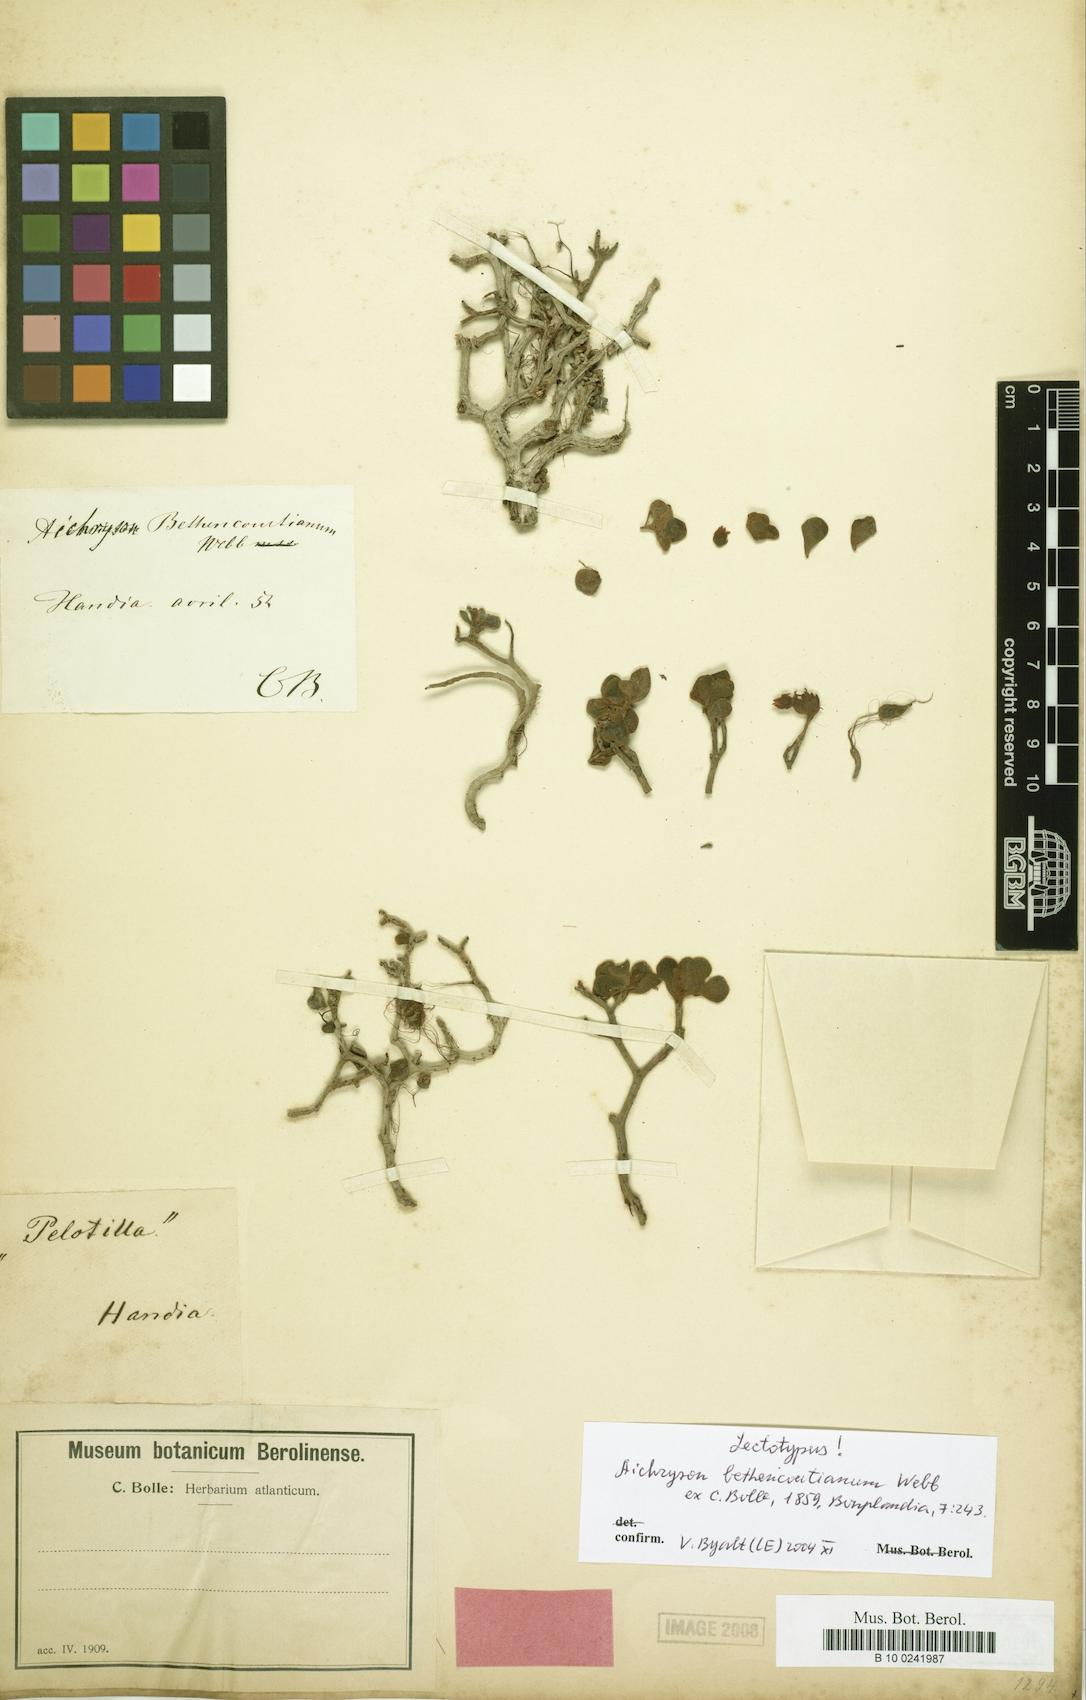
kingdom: Plantae
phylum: Tracheophyta
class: Magnoliopsida
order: Saxifragales
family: Crassulaceae
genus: Aichryson
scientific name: Aichryson tortuosum
